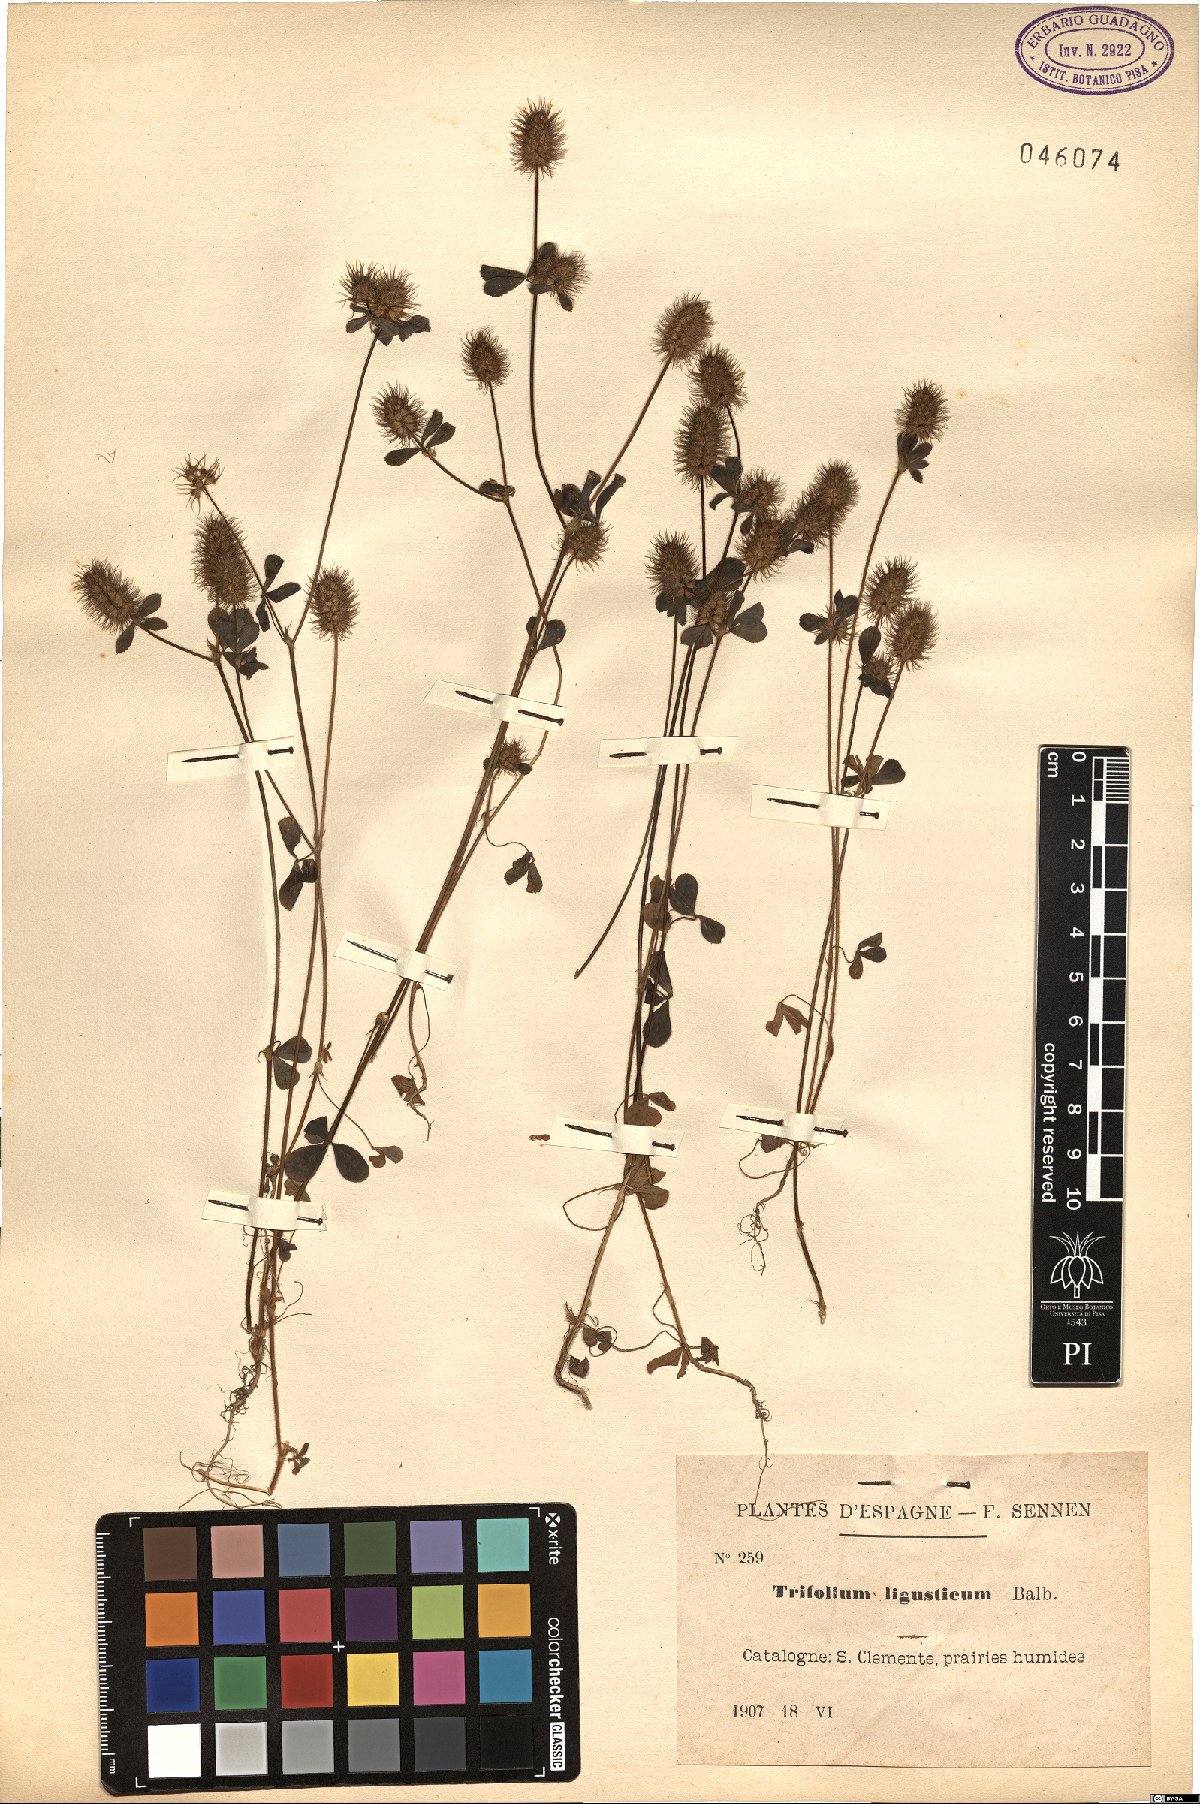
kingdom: Plantae
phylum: Tracheophyta
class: Magnoliopsida
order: Fabales
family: Fabaceae
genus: Trifolium
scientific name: Trifolium ligusticum
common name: Ligurian clover
